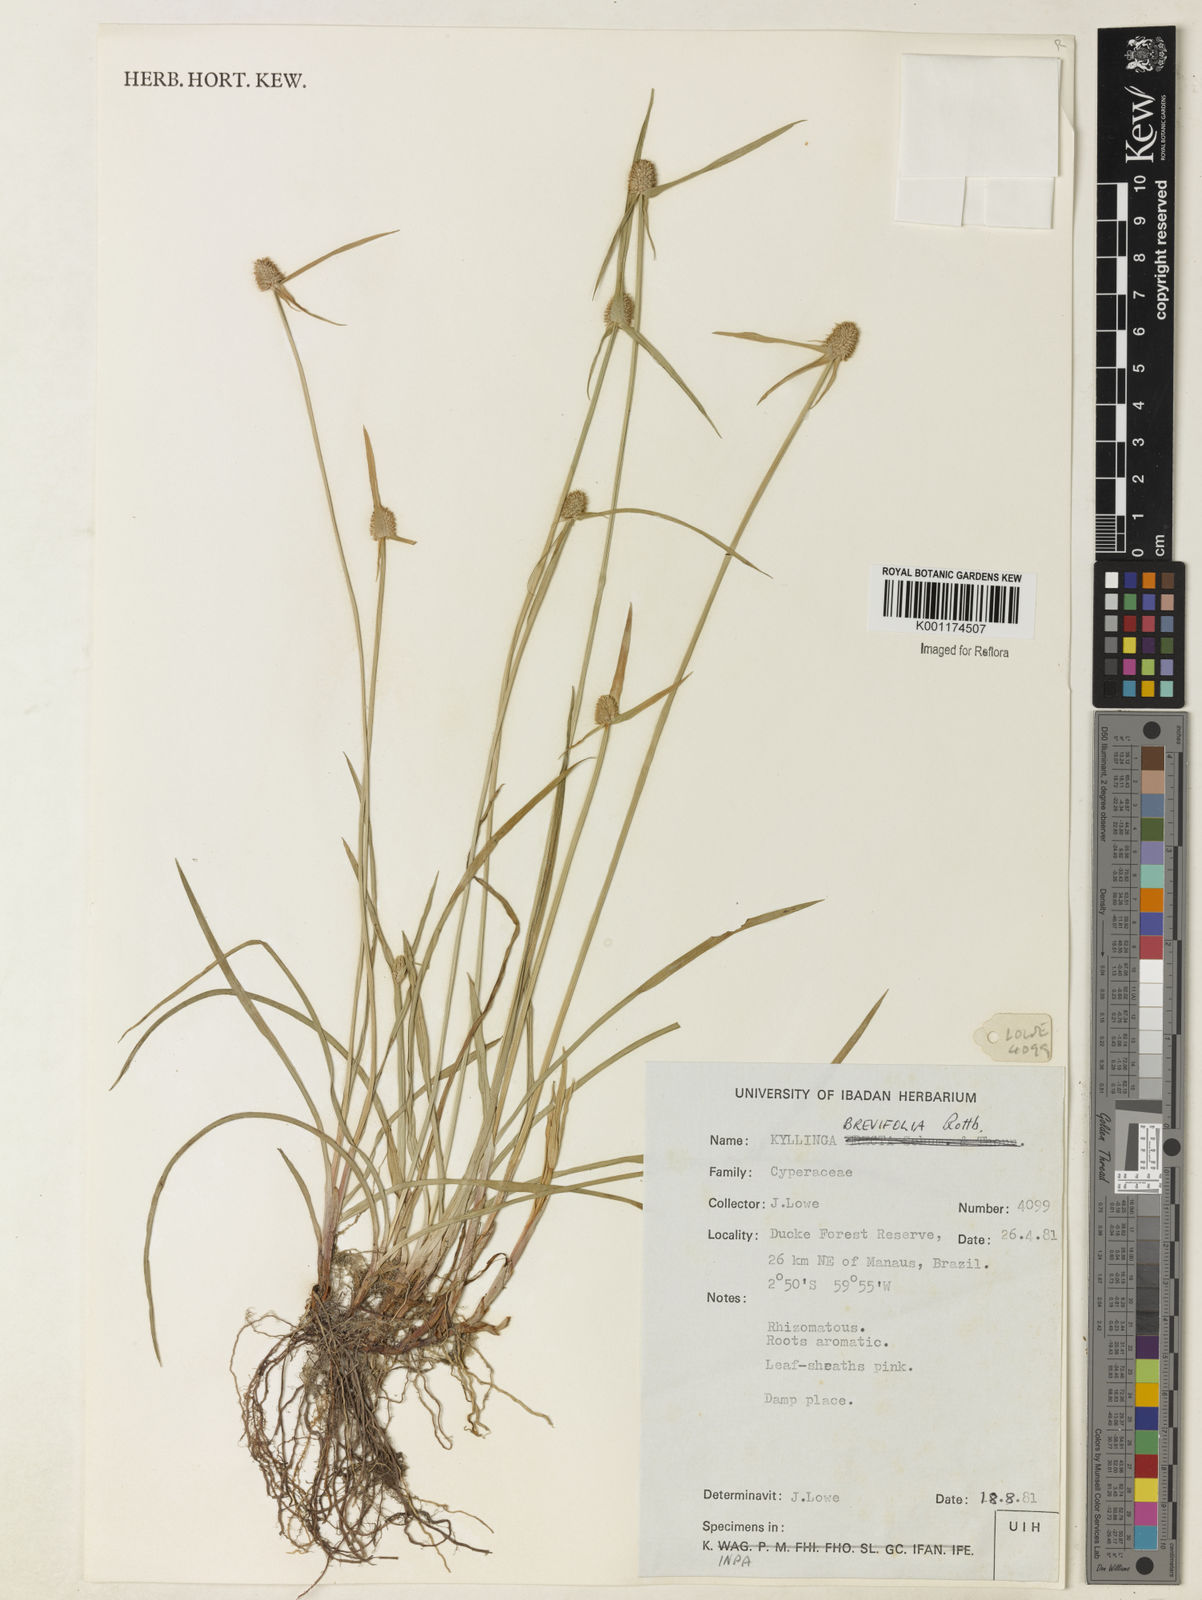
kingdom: Plantae
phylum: Tracheophyta
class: Liliopsida
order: Poales
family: Cyperaceae
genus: Cyperus
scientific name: Cyperus brevifolius
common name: Globe kyllinga
